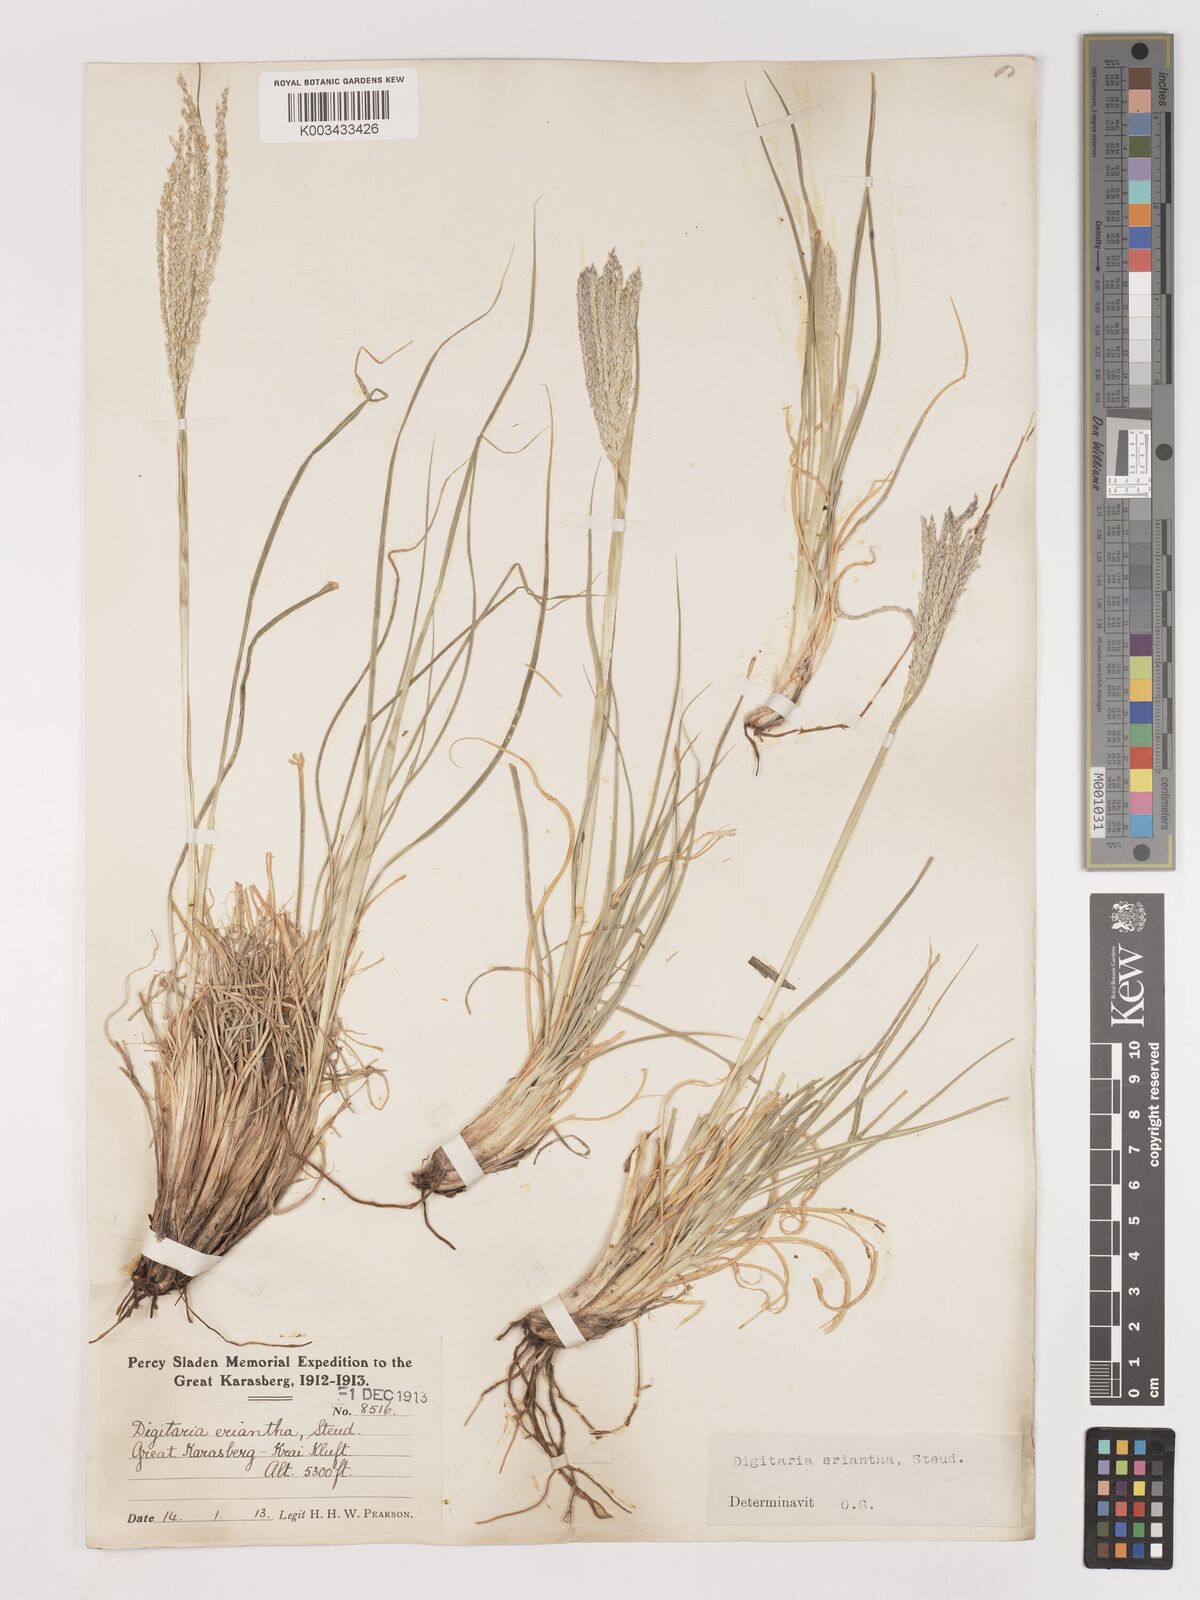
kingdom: Plantae
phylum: Tracheophyta
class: Liliopsida
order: Poales
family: Poaceae
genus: Digitaria
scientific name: Digitaria eriantha
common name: Digitgrass
